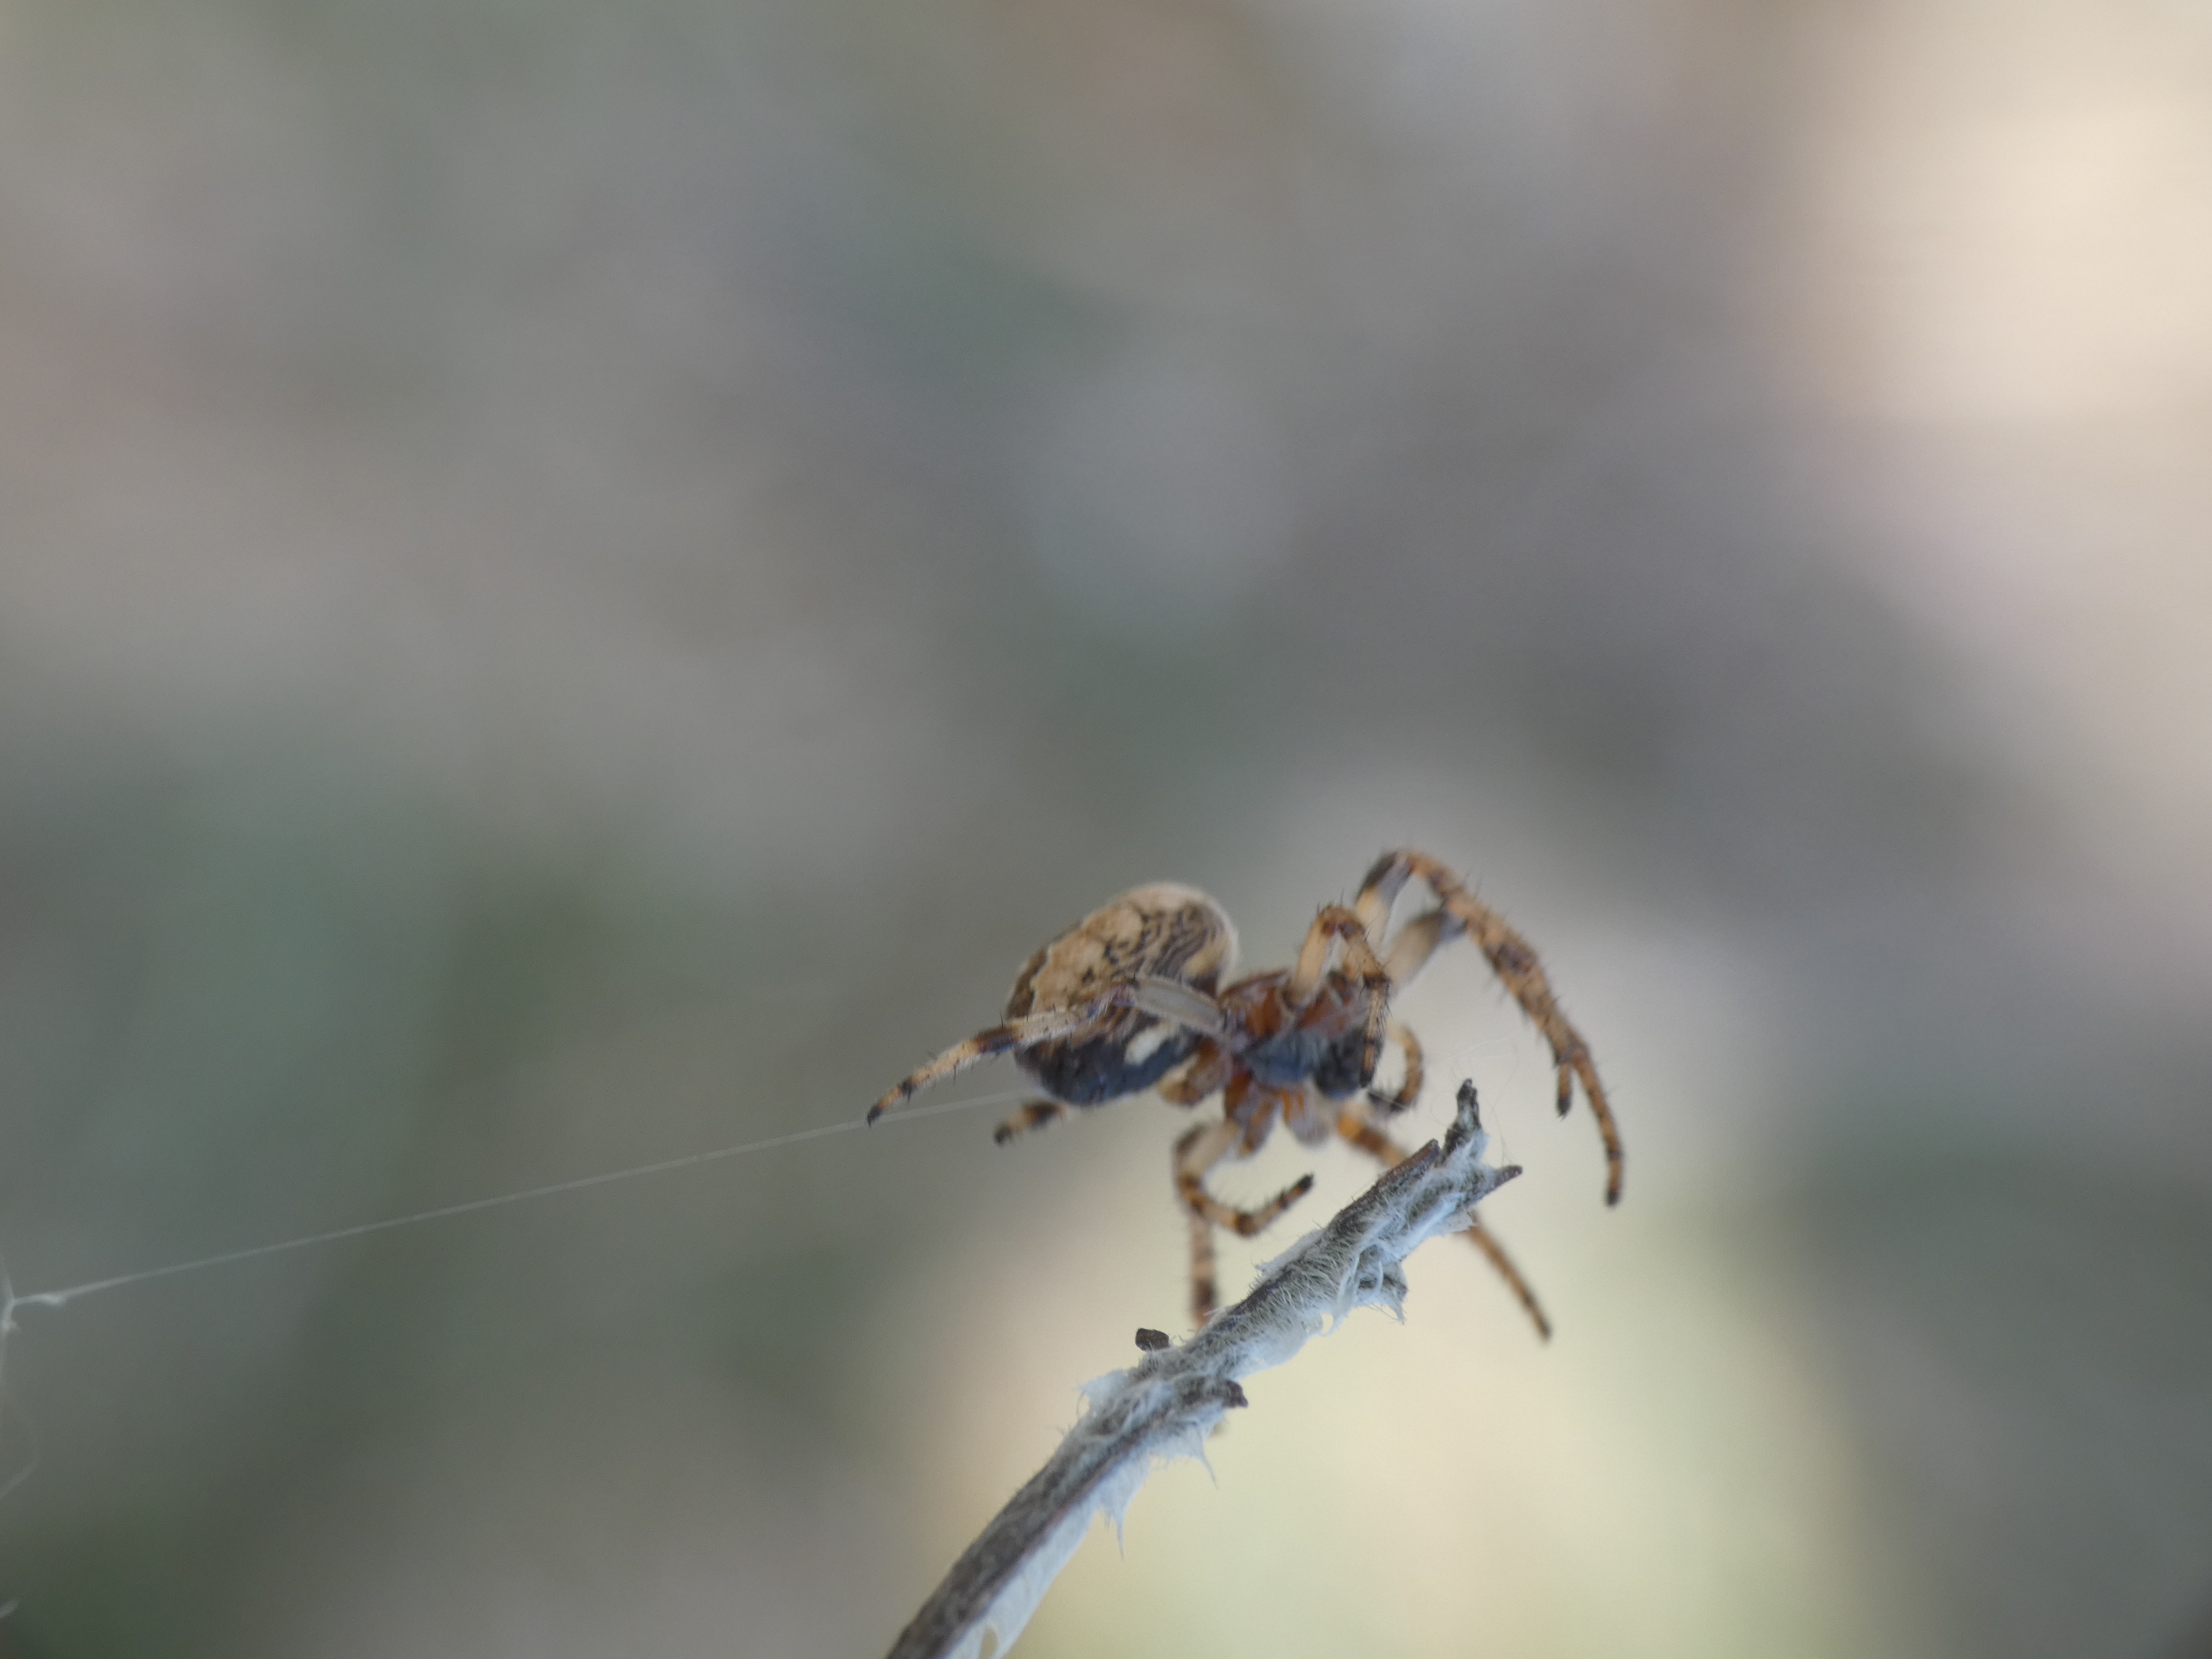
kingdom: Animalia
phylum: Arthropoda
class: Arachnida
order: Araneae
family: Araneidae
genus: Larinioides
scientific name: Larinioides cornutus
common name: Sivhjulspinder
